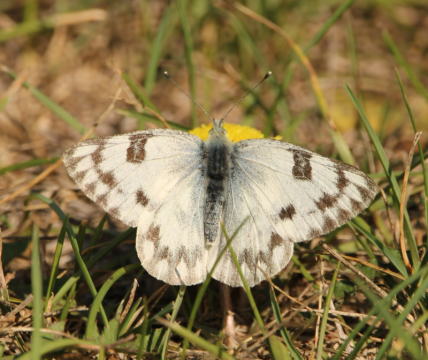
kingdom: Animalia
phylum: Arthropoda
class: Insecta
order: Lepidoptera
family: Pieridae
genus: Pontia
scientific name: Pontia occidentalis
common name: Western White
